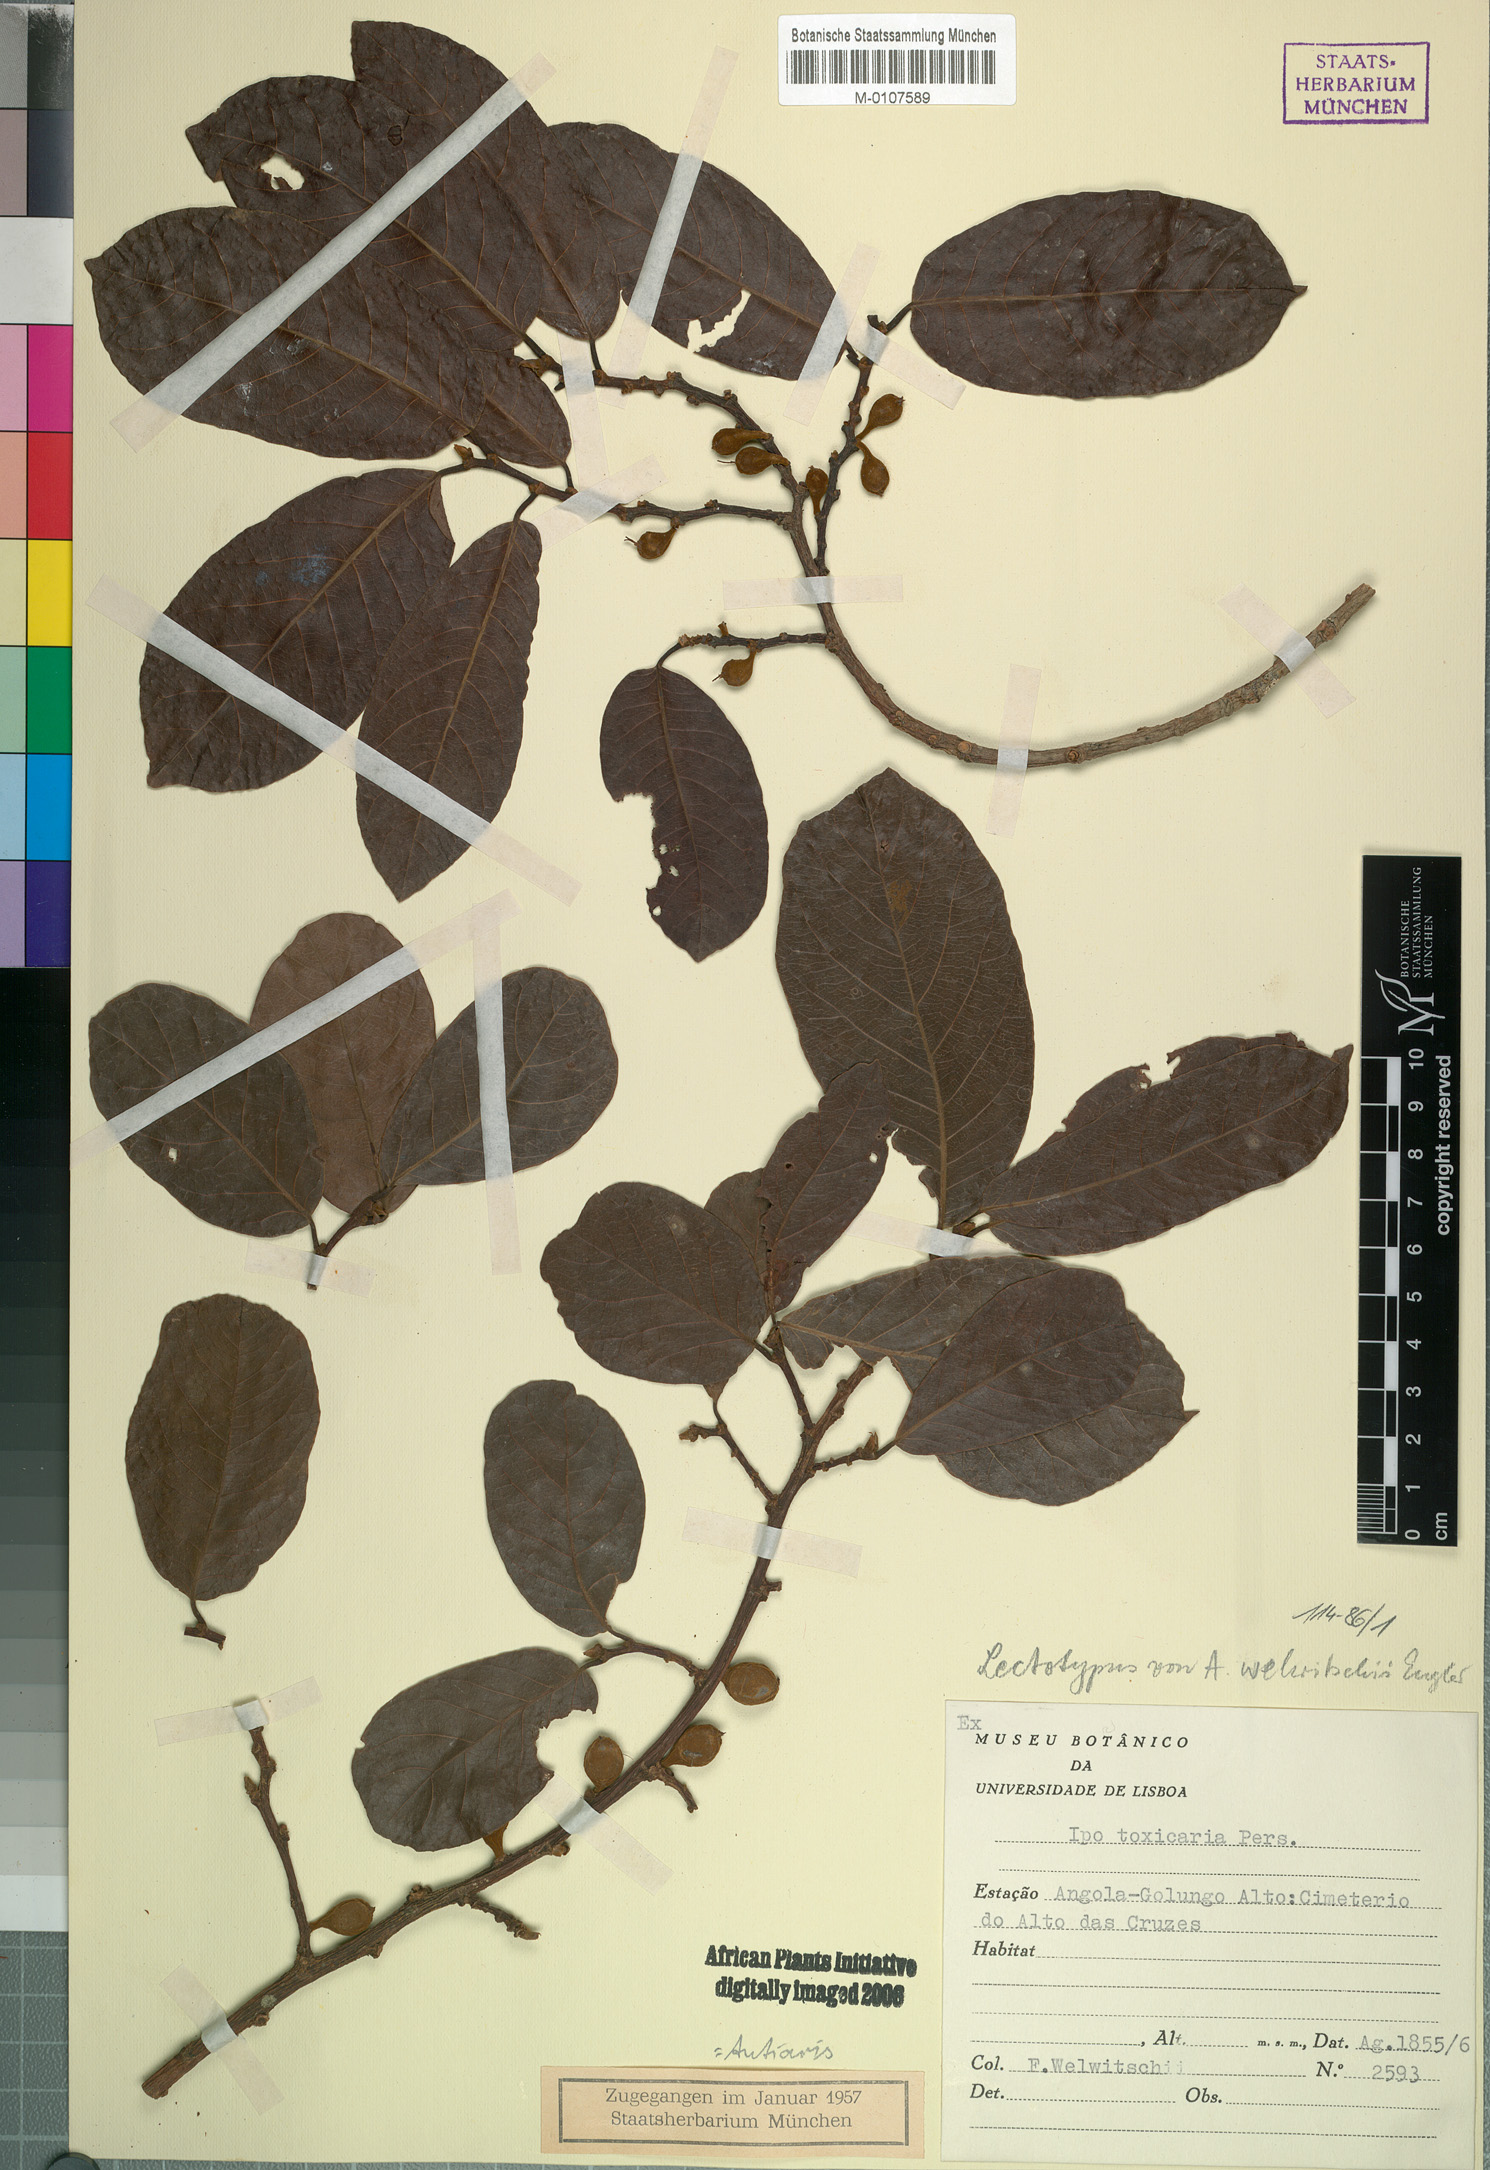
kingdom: Plantae
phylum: Tracheophyta
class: Magnoliopsida
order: Rosales
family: Moraceae
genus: Antiaris
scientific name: Antiaris toxicaria
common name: Sackingtree
